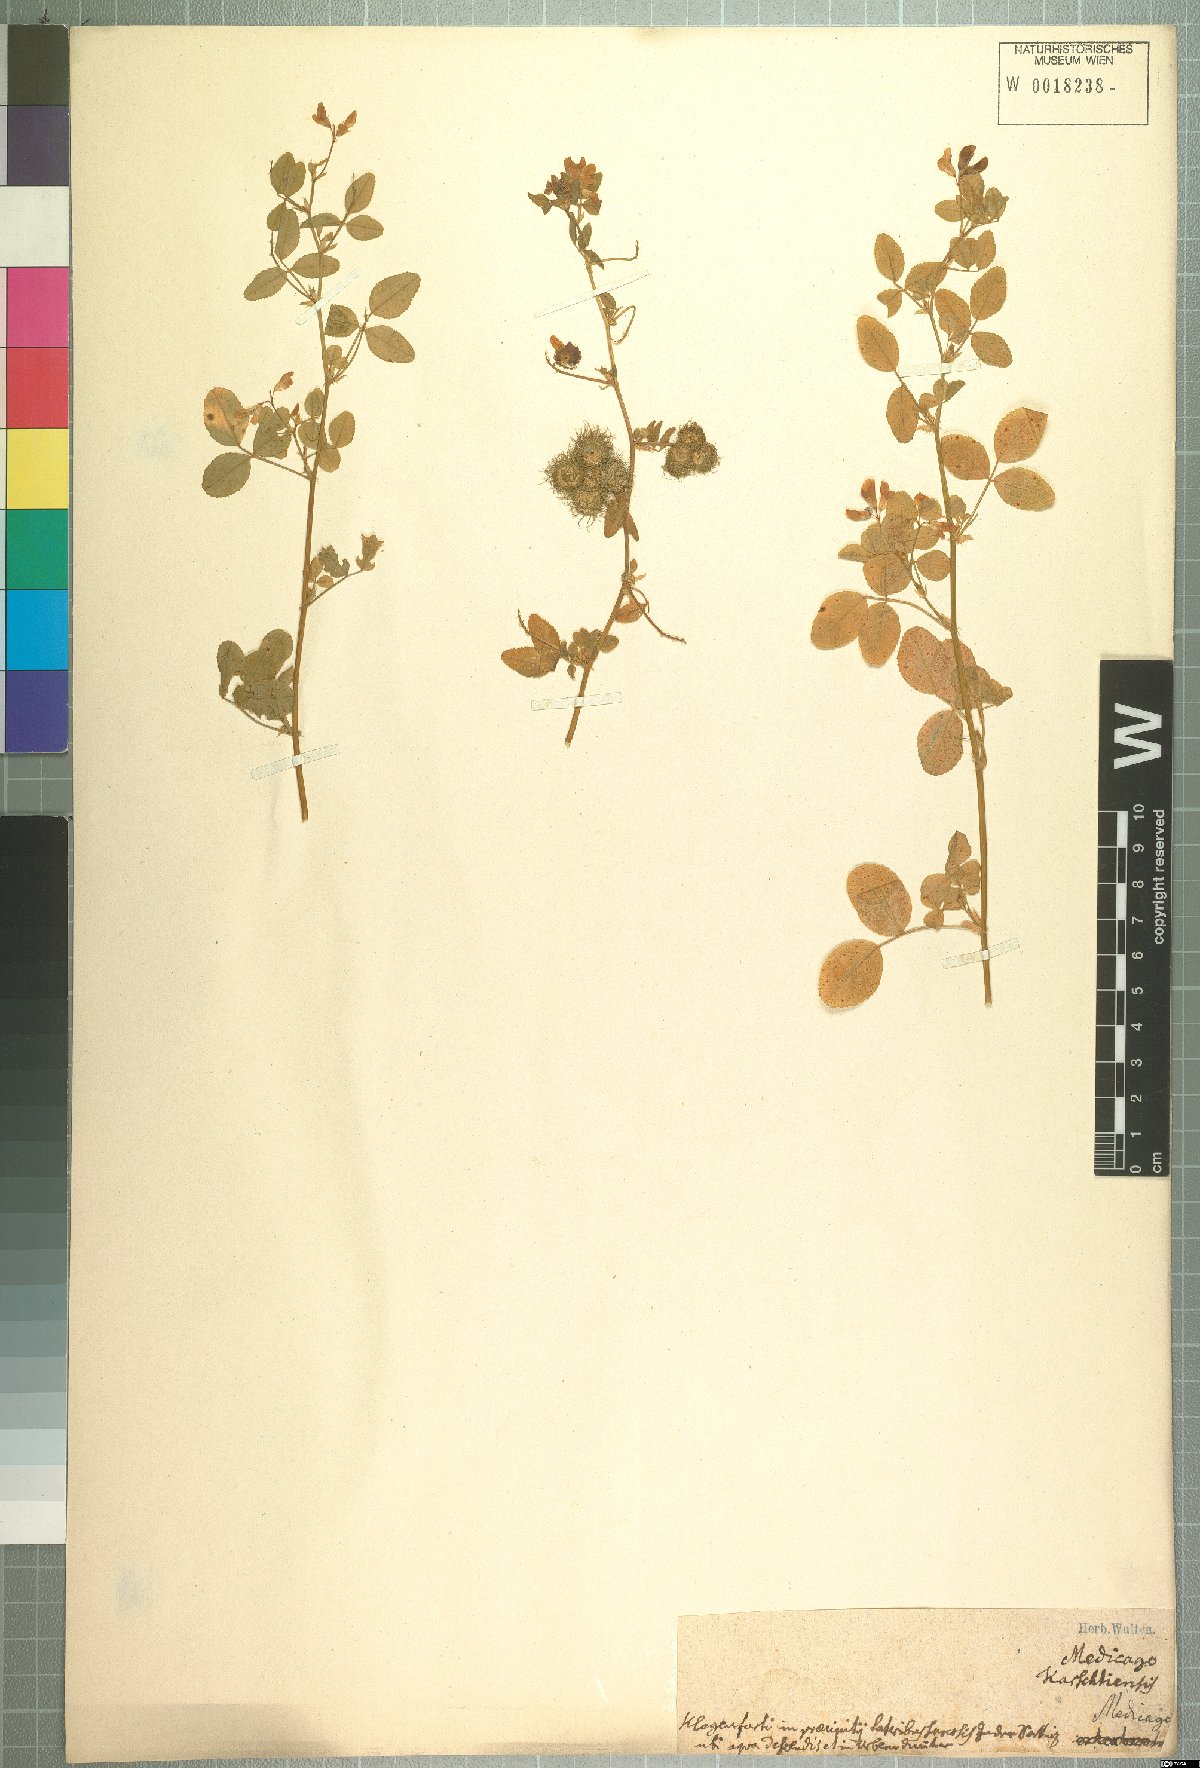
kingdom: Plantae
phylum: Tracheophyta
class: Magnoliopsida
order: Fabales
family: Fabaceae
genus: Medicago
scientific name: Medicago carstiensis
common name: Creeping-rooted medic
